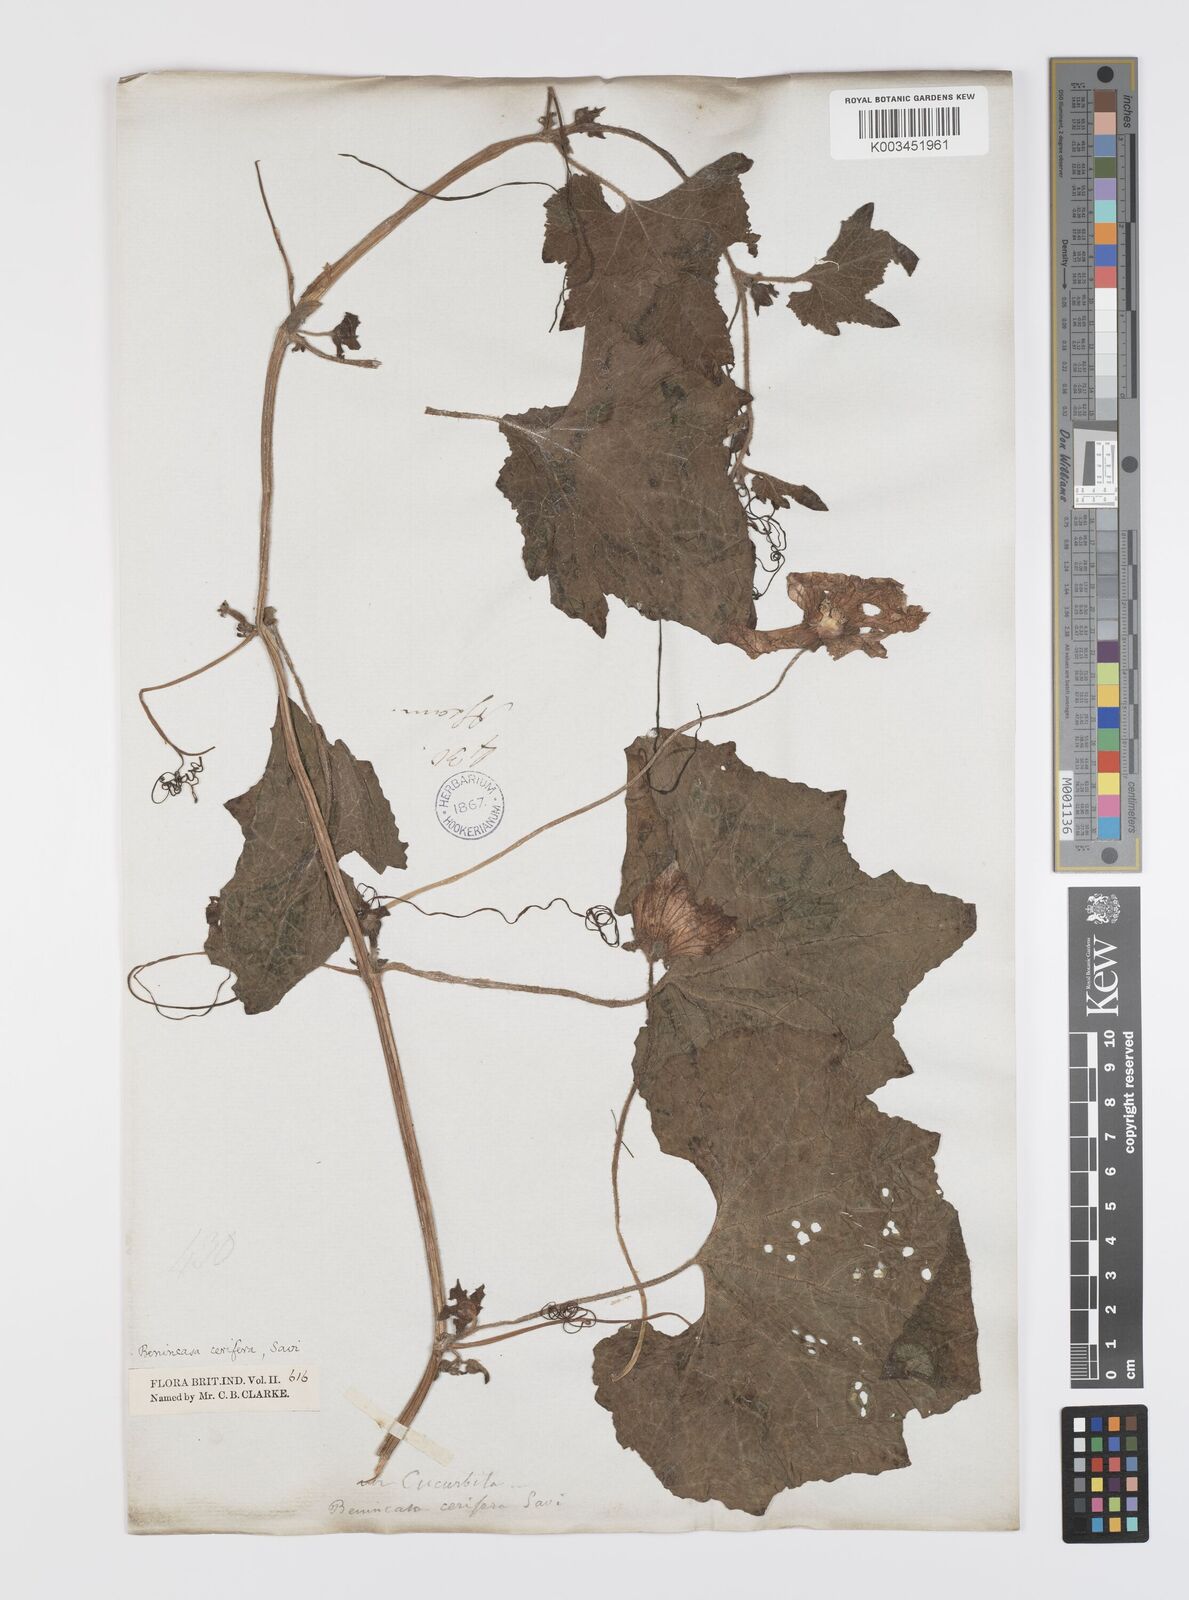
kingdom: Plantae
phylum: Tracheophyta
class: Magnoliopsida
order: Cucurbitales
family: Cucurbitaceae
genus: Benincasa
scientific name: Benincasa hispida
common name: Chinese-watermelon
